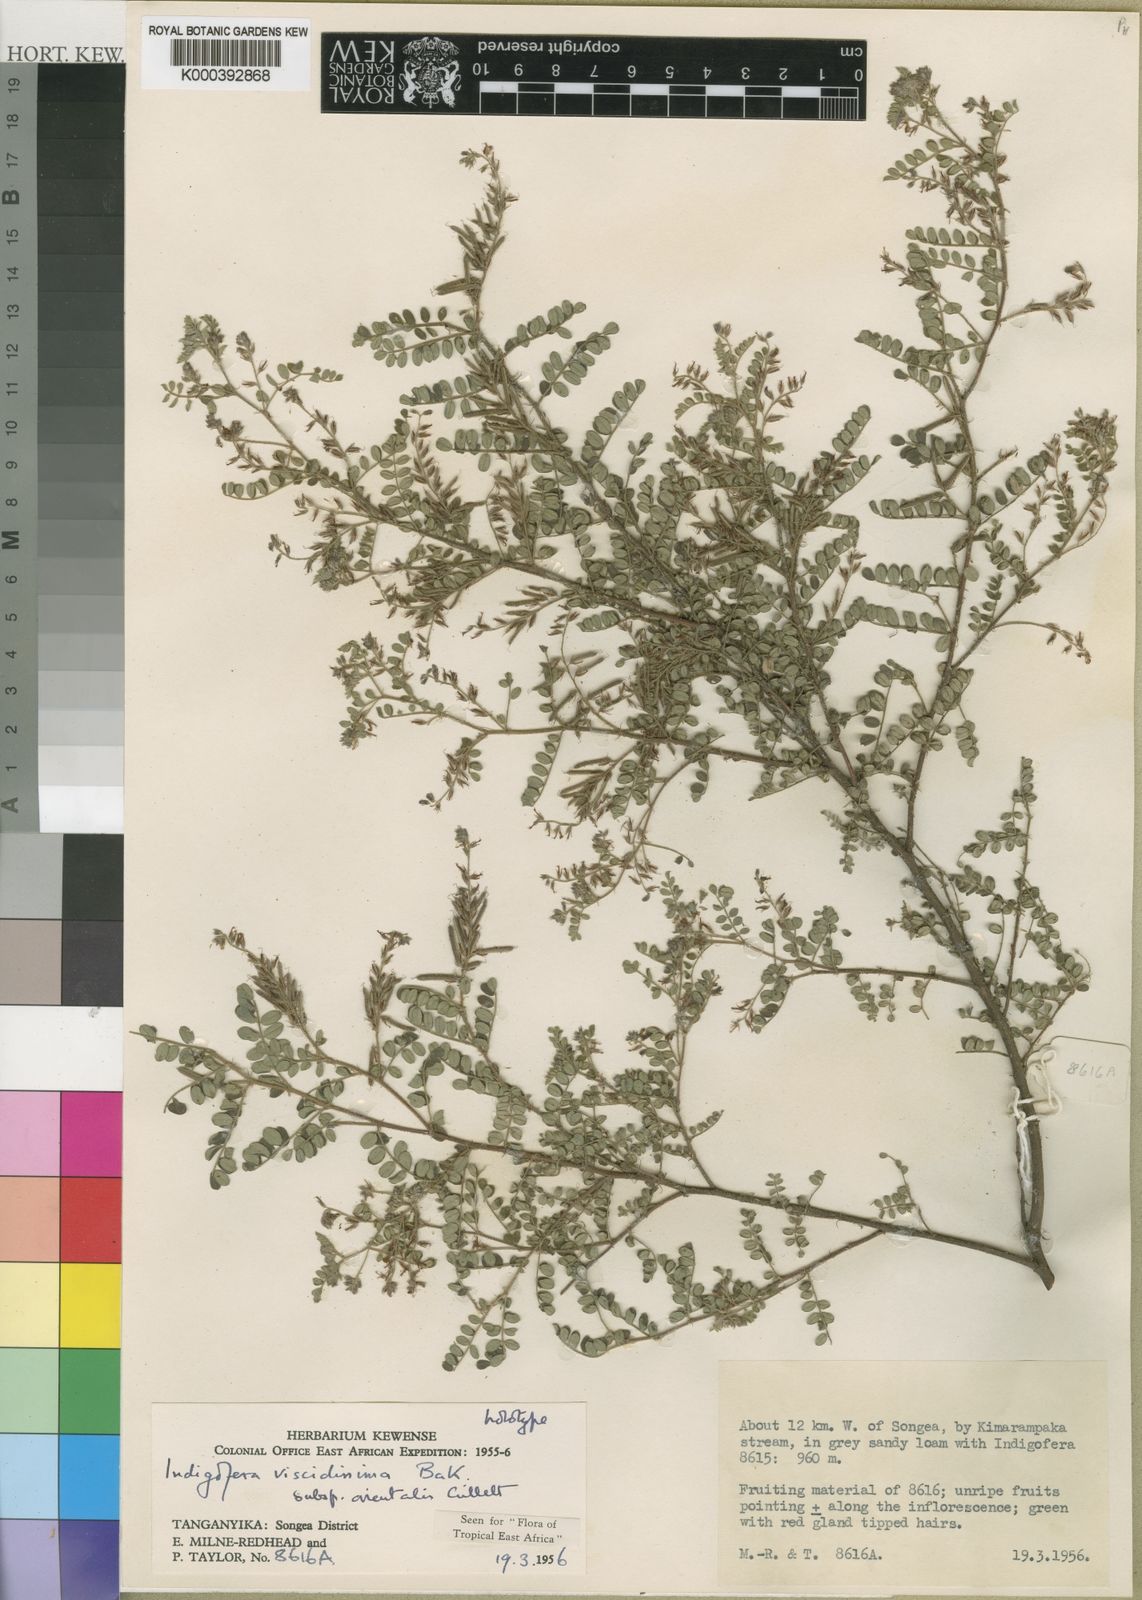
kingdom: Plantae
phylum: Tracheophyta
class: Magnoliopsida
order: Fabales
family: Fabaceae
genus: Indigofera
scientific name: Indigofera viscidissima
